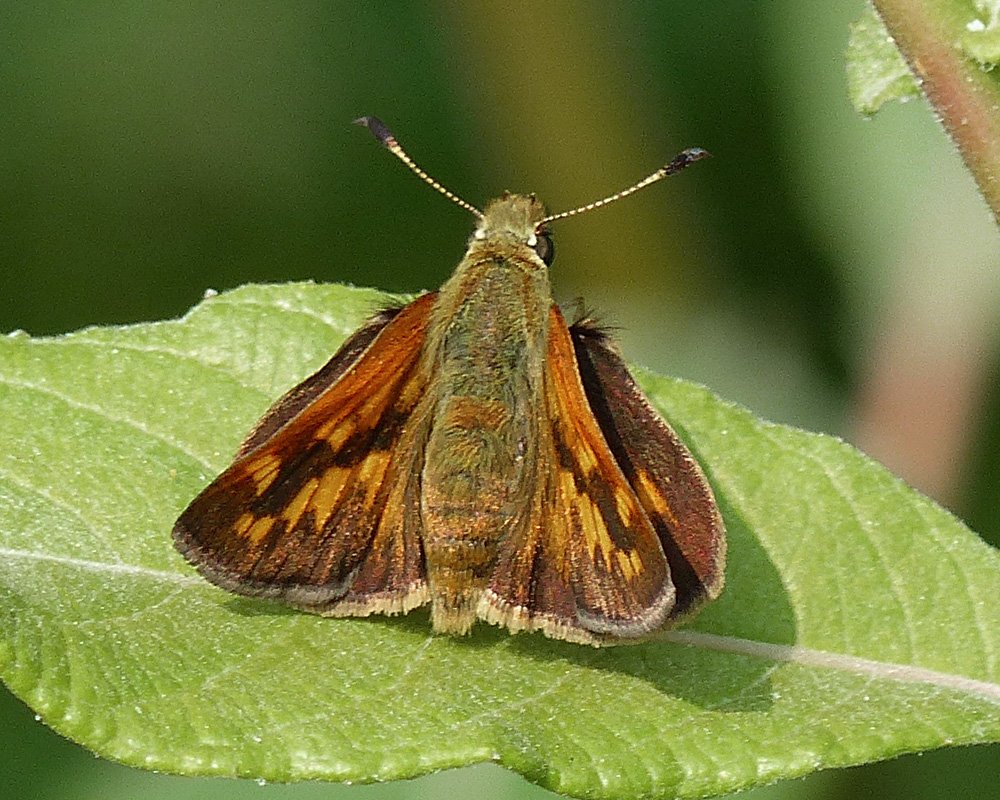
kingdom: Animalia
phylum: Arthropoda
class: Insecta
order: Lepidoptera
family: Hesperiidae
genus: Ochlodes
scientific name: Ochlodes sylvanoides
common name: Woodland Skipper
